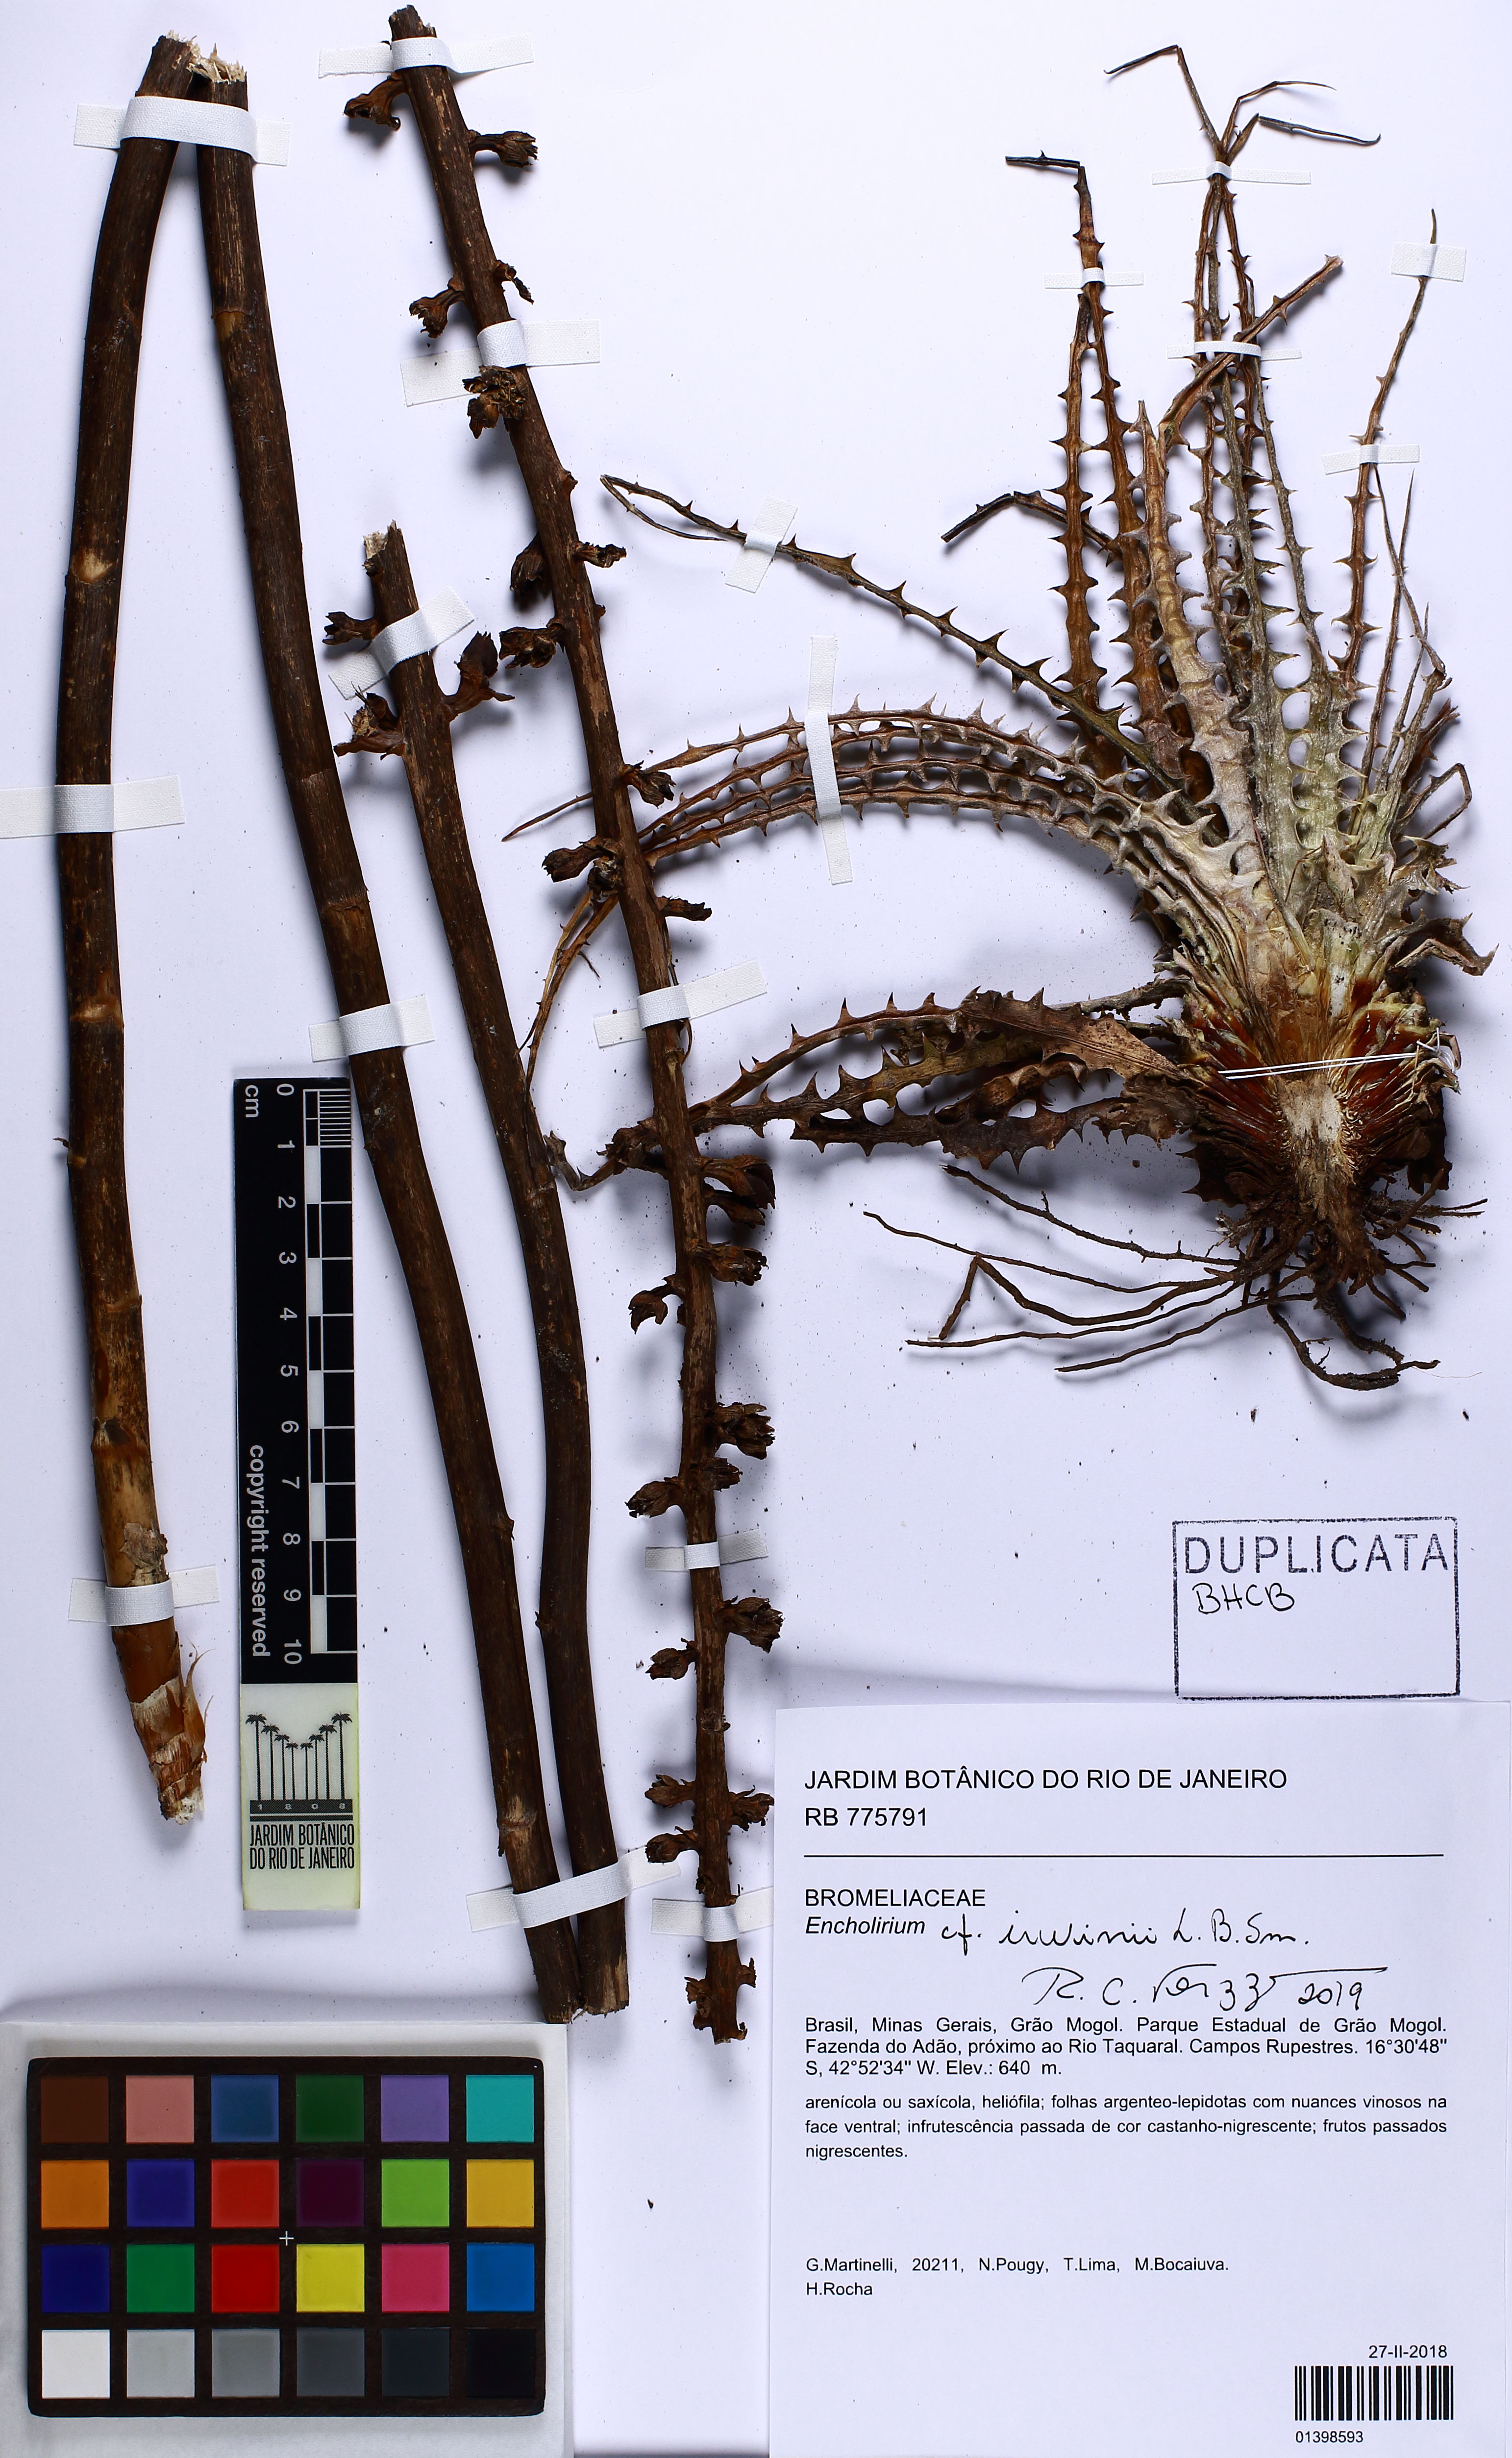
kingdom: Plantae
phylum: Tracheophyta
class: Liliopsida
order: Poales
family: Bromeliaceae
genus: Encholirium
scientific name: Encholirium irwinii
